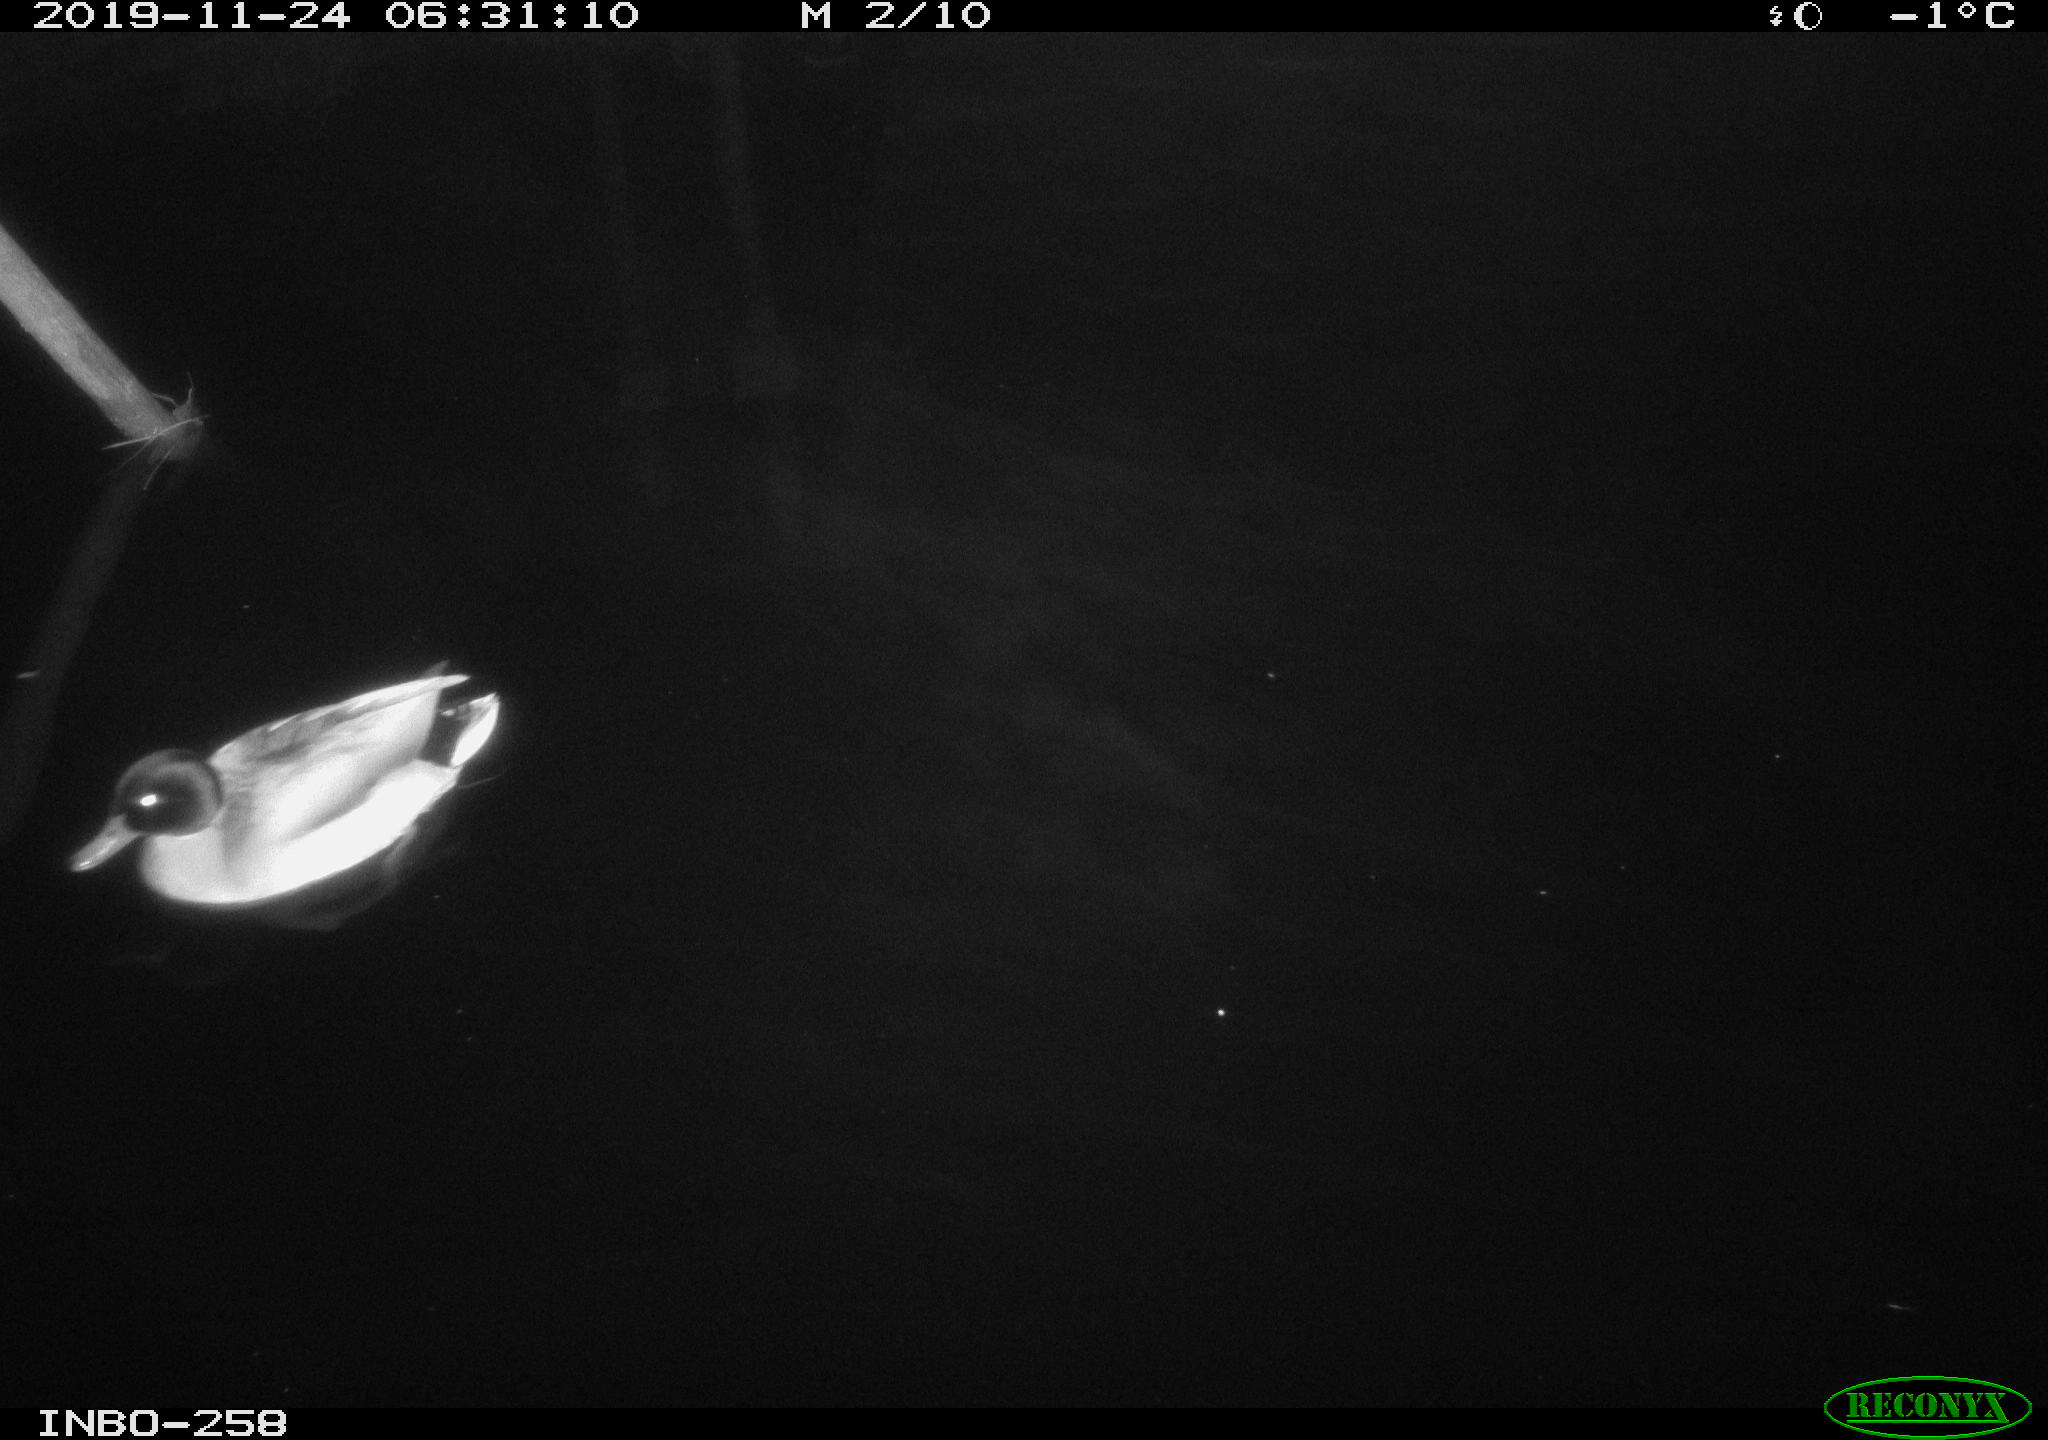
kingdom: Animalia
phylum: Chordata
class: Aves
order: Anseriformes
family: Anatidae
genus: Anas
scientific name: Anas platyrhynchos
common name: Mallard
